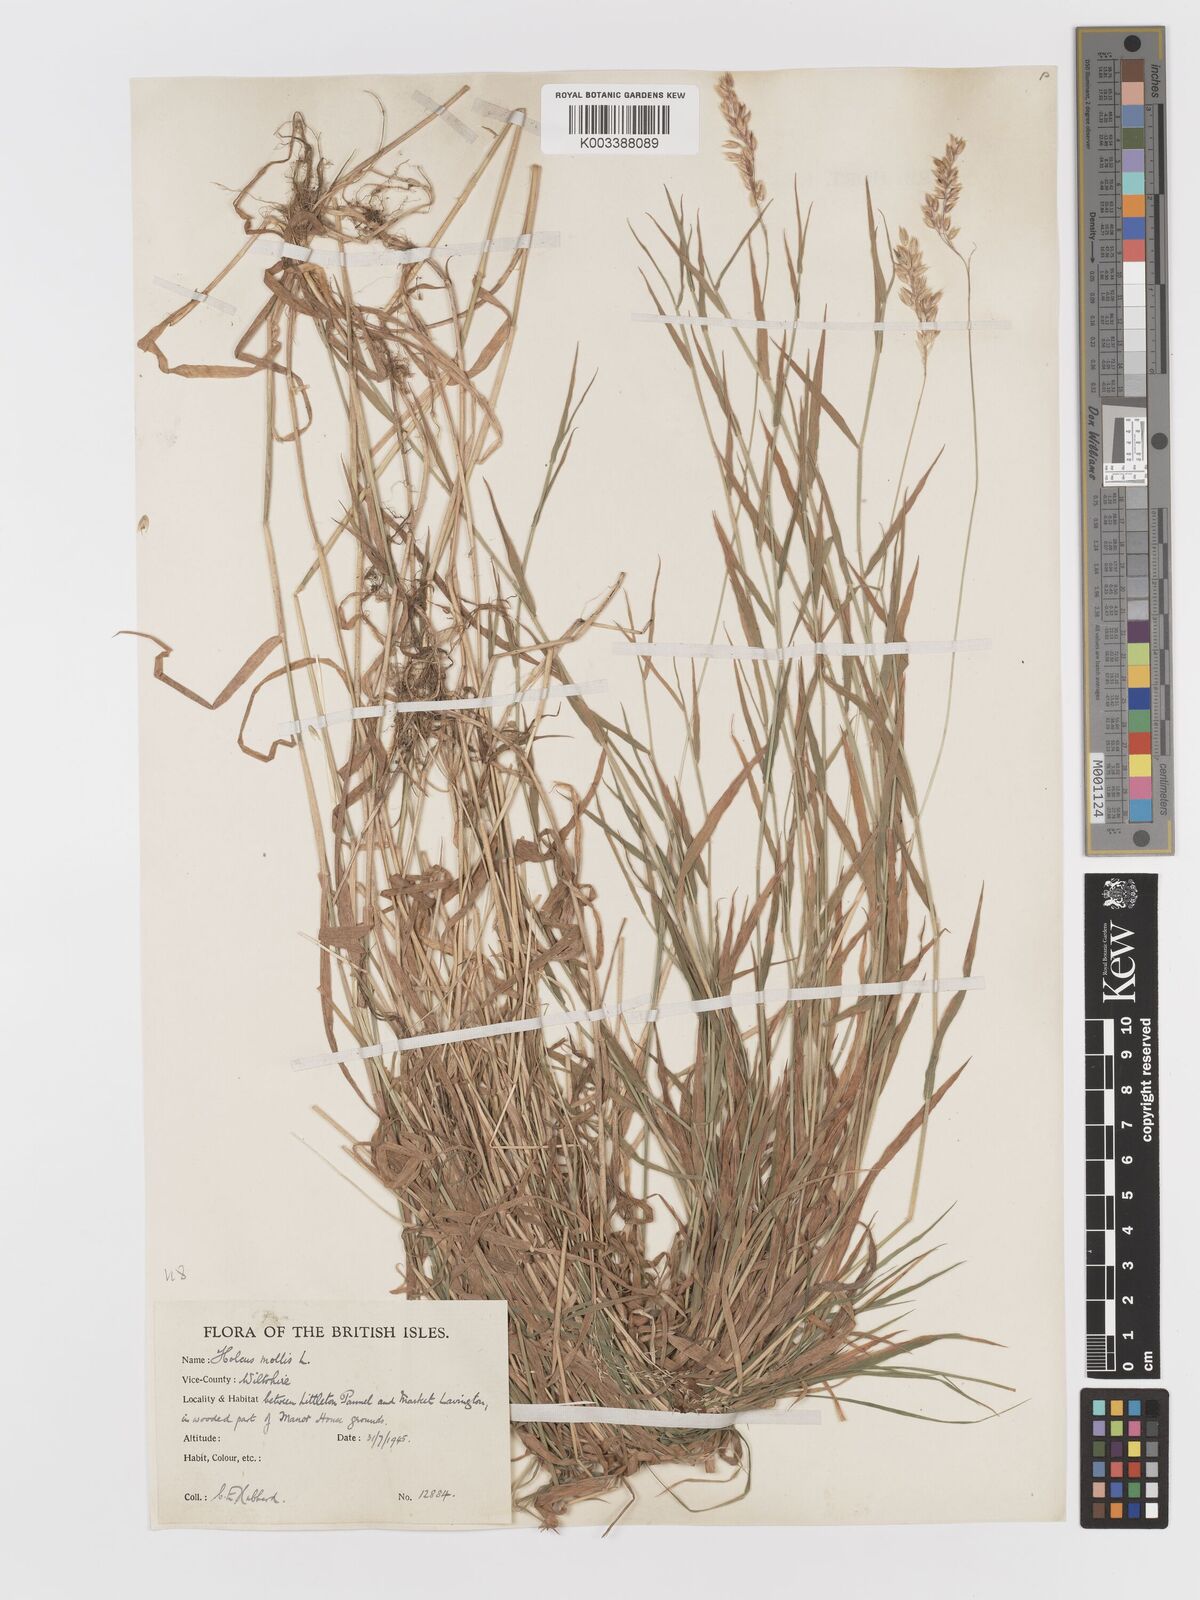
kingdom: Plantae
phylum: Tracheophyta
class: Liliopsida
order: Poales
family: Poaceae
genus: Holcus
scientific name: Holcus mollis
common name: Creeping velvetgrass
